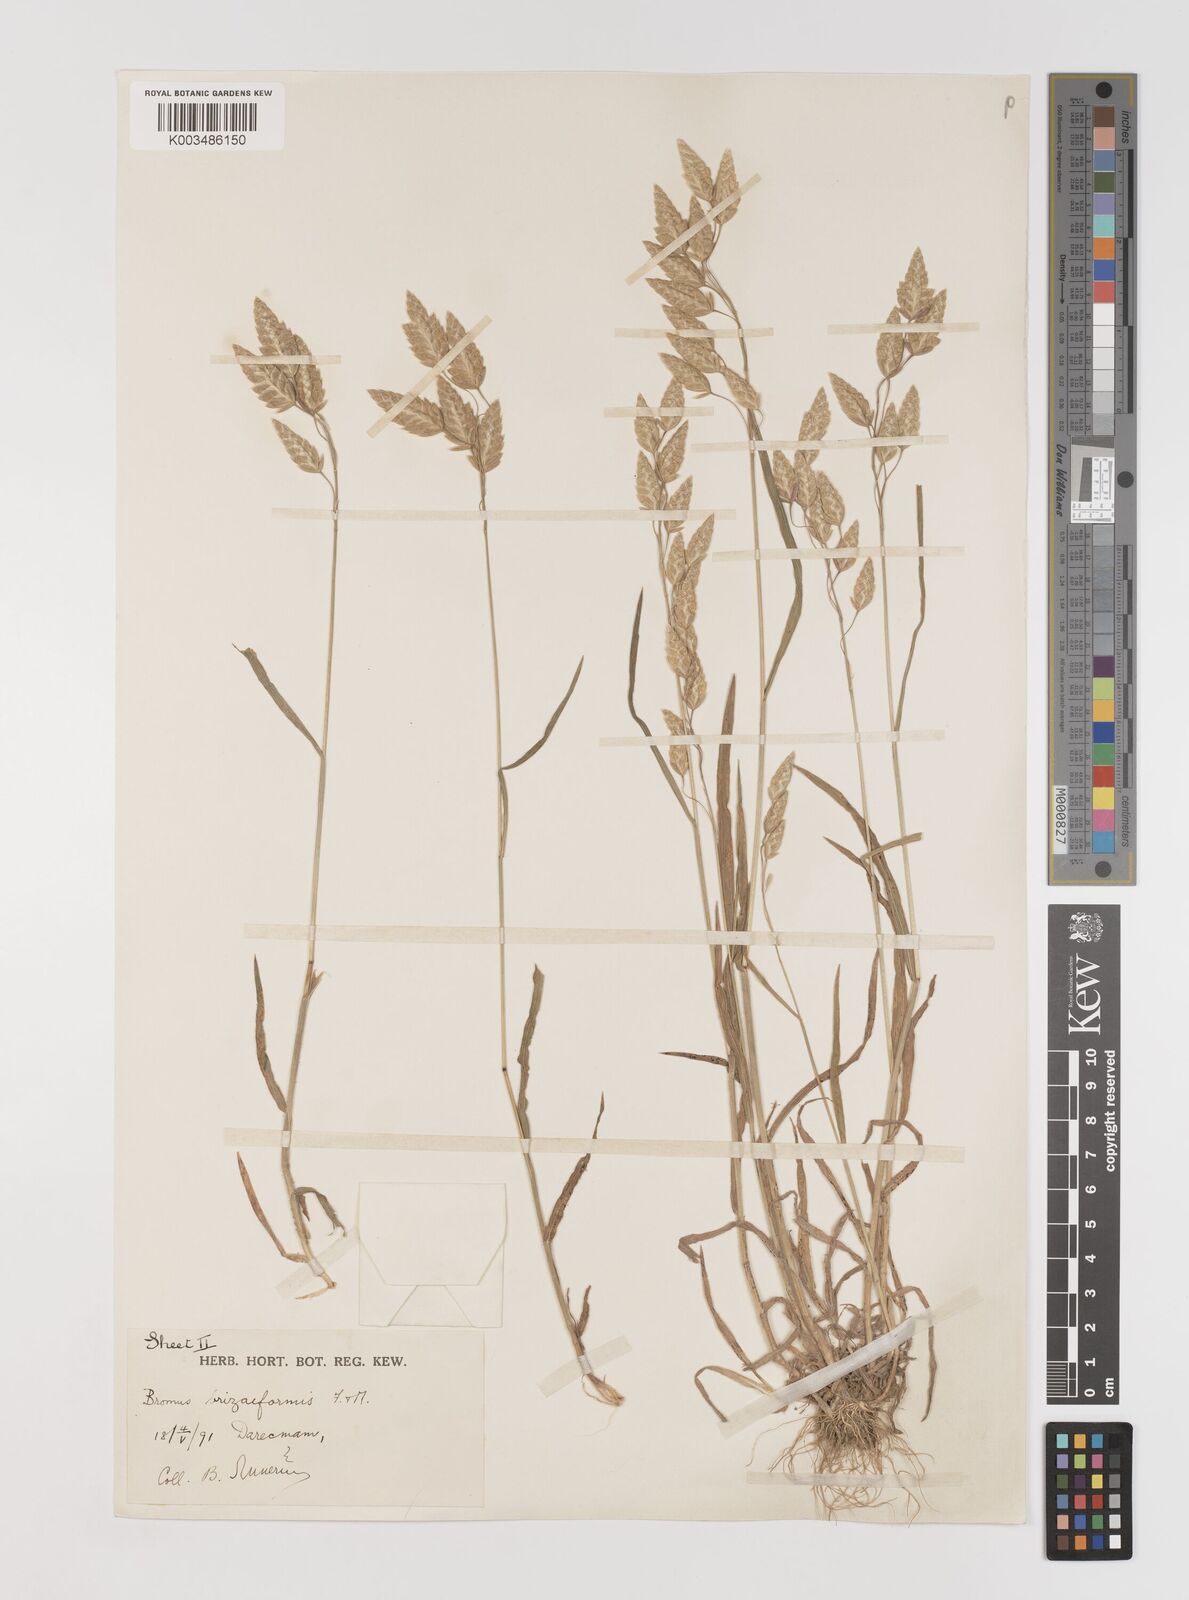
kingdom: Plantae
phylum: Tracheophyta
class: Liliopsida
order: Poales
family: Poaceae
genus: Bromus
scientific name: Bromus briziformis
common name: Rattlesnake brome
